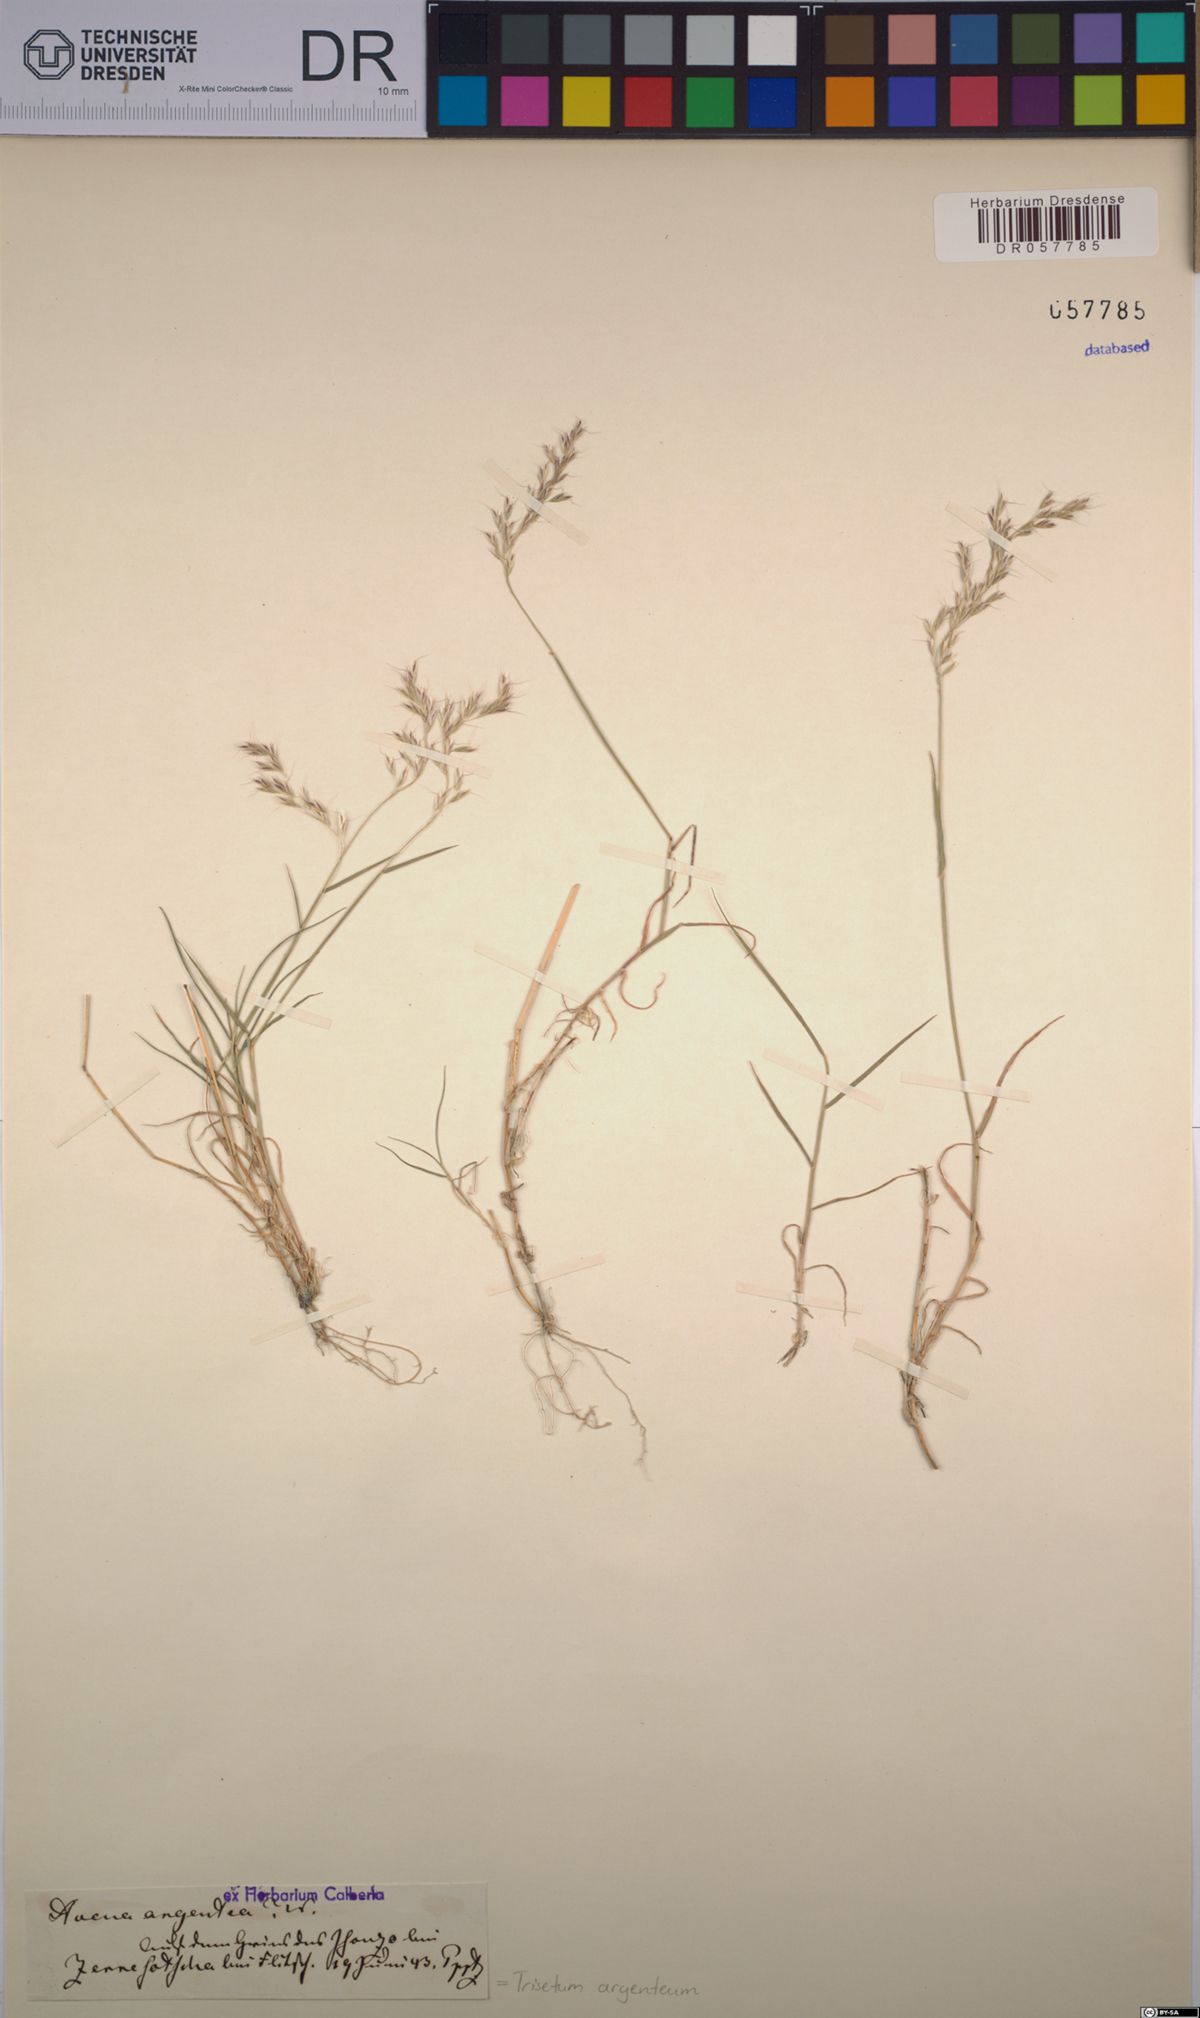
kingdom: Plantae
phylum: Tracheophyta
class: Liliopsida
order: Poales
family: Poaceae
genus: Trisetum
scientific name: Trisetum argenteum
